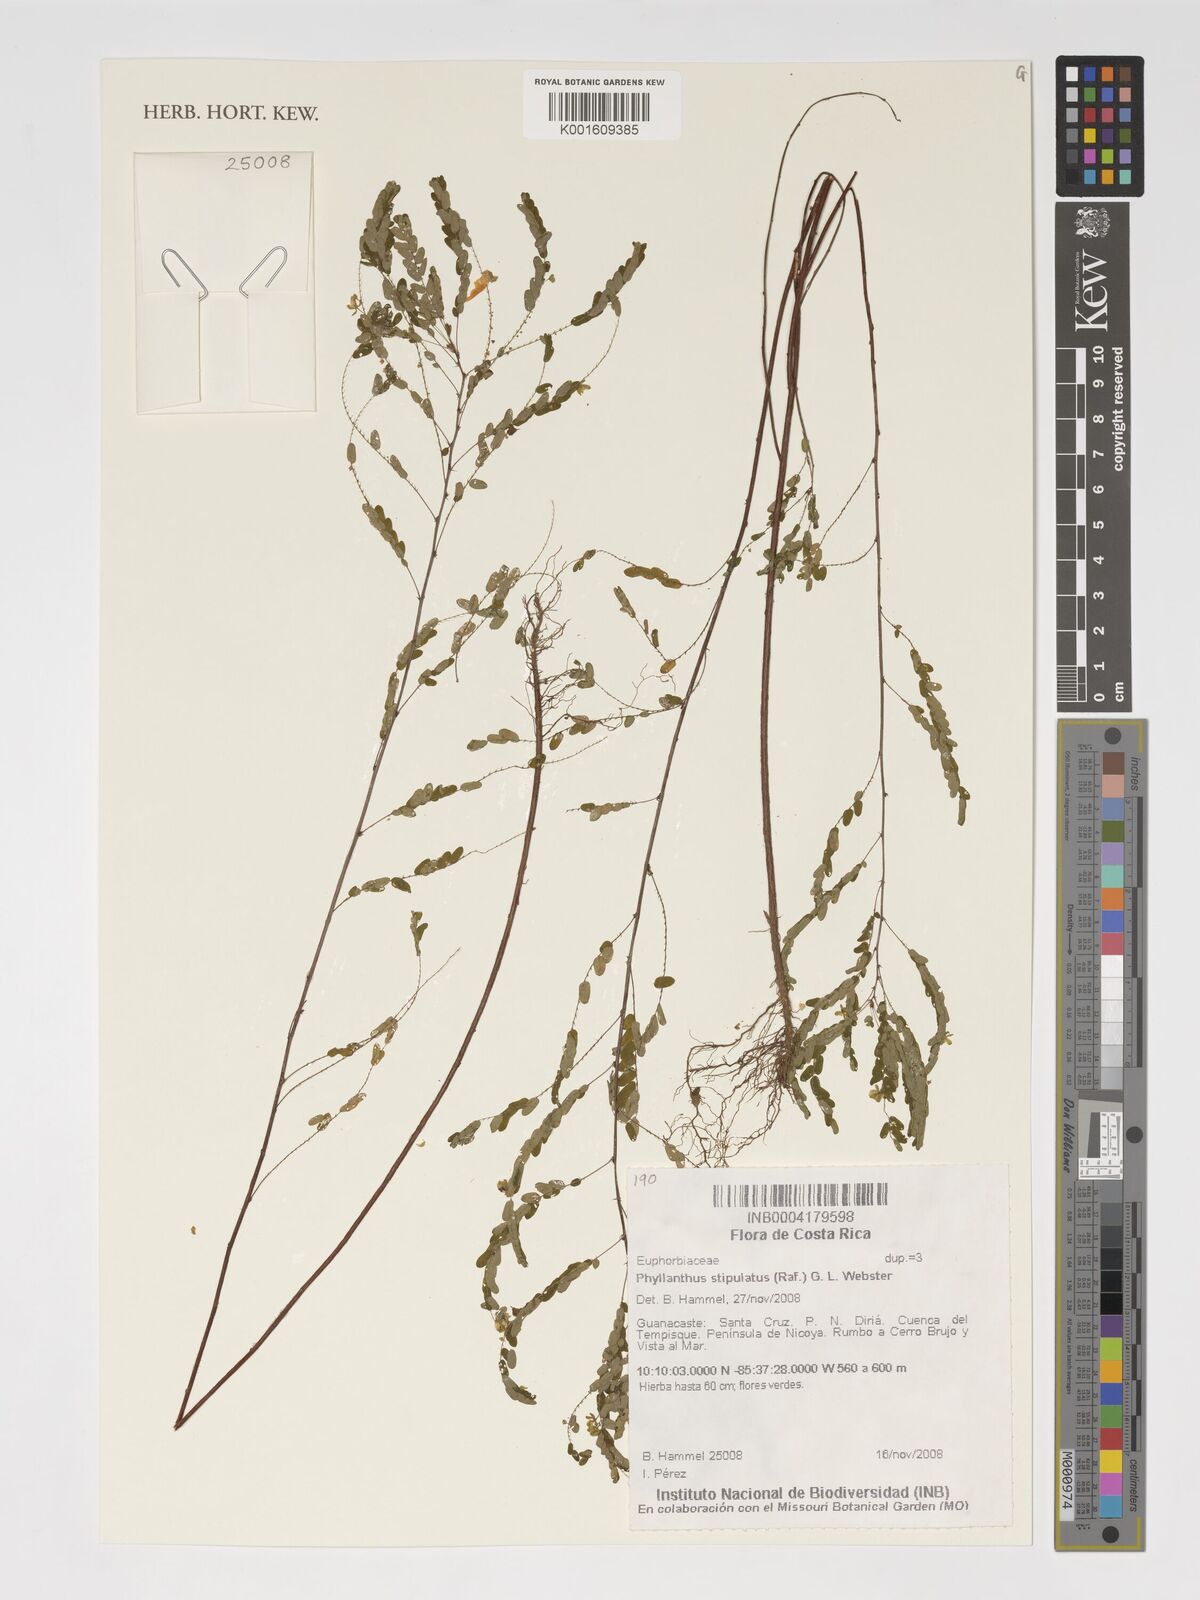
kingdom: Plantae
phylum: Tracheophyta
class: Magnoliopsida
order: Malpighiales
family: Phyllanthaceae
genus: Phyllanthus
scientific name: Phyllanthus stipulatus
